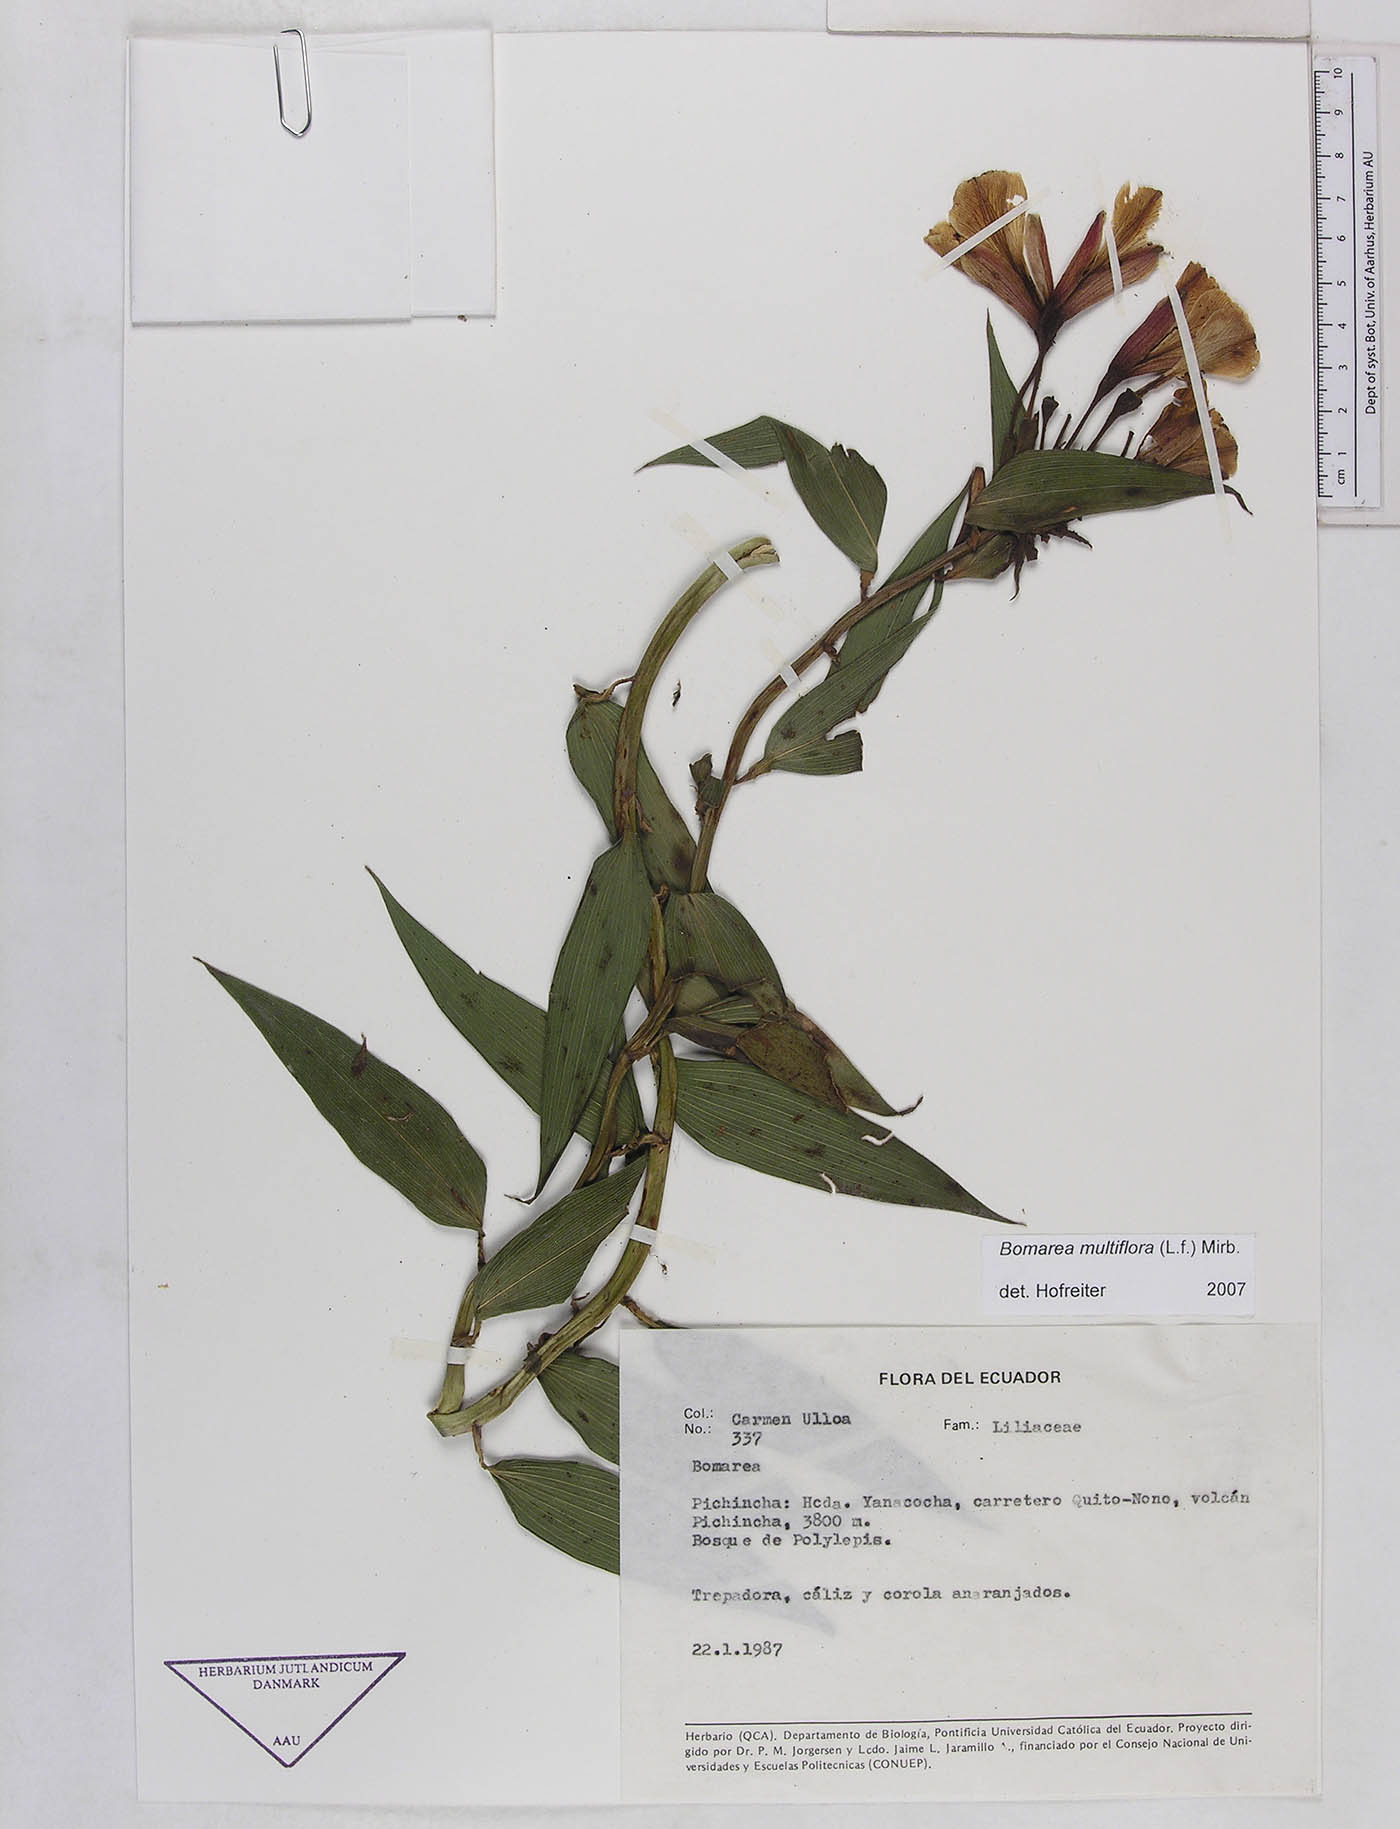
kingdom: Plantae
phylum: Tracheophyta
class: Liliopsida
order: Liliales
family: Alstroemeriaceae
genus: Bomarea
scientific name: Bomarea multiflora
